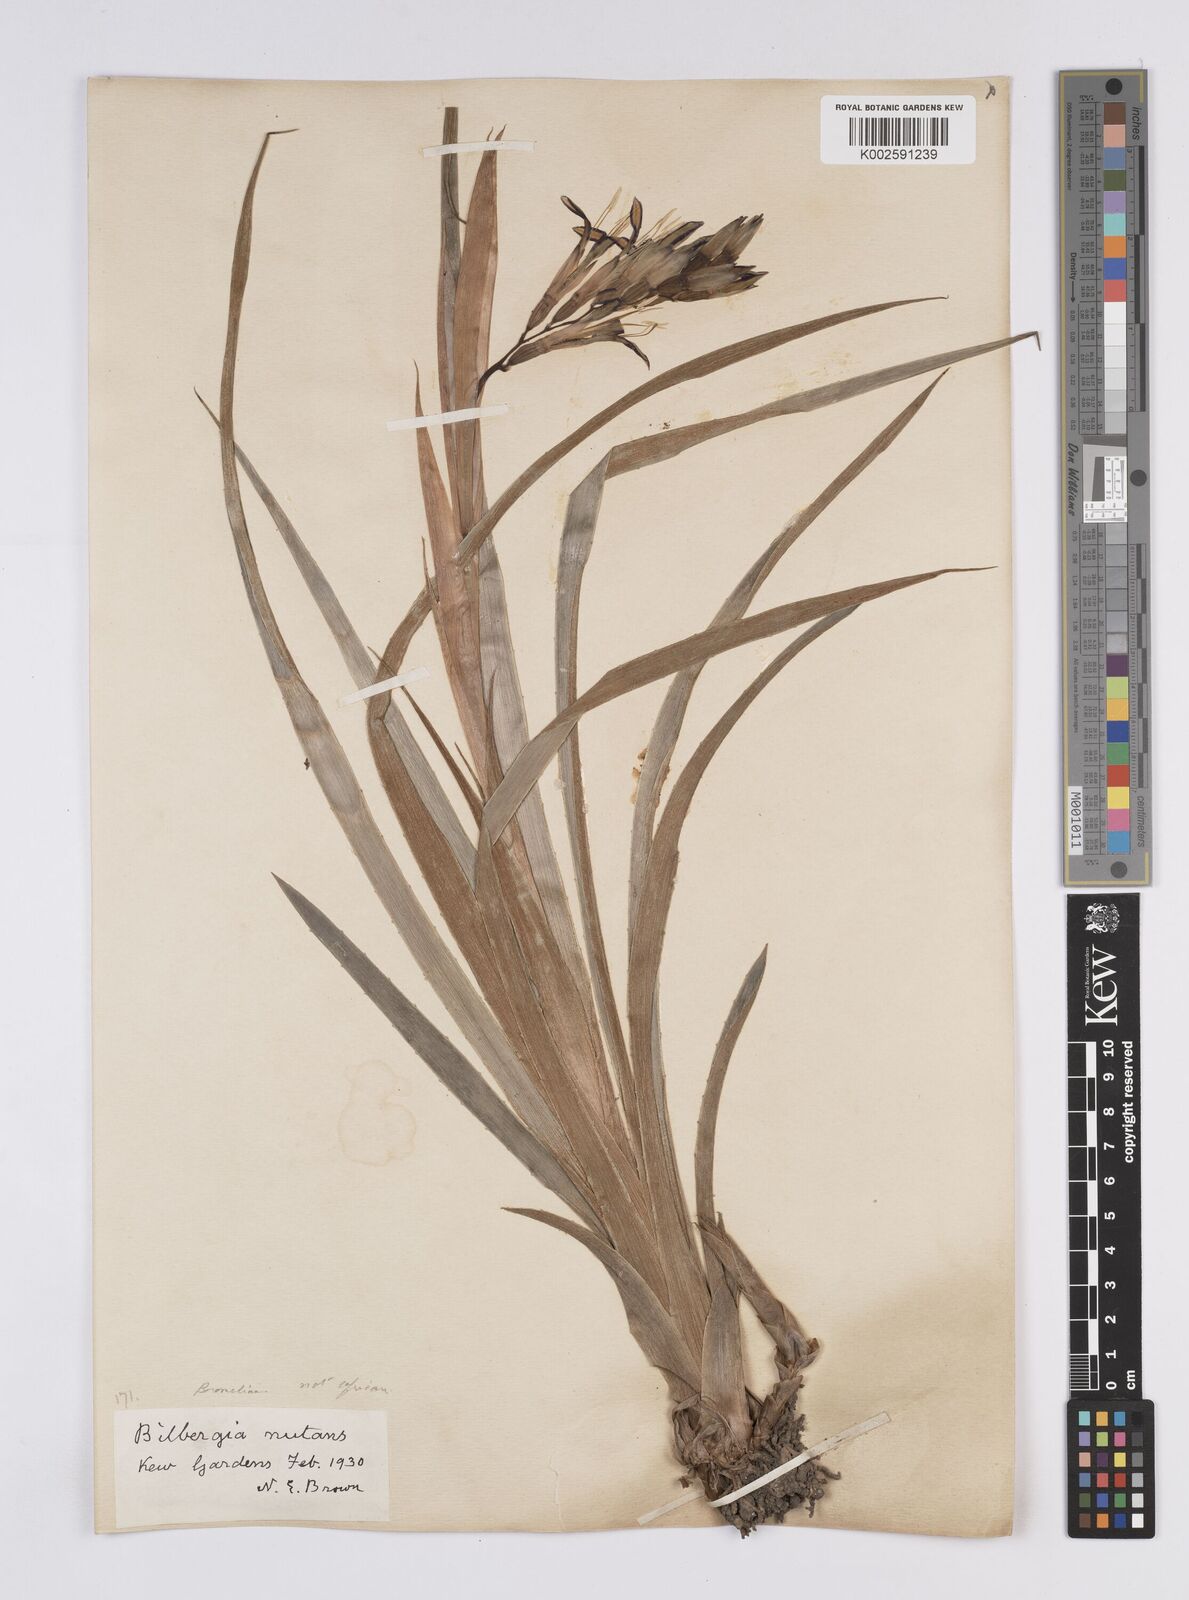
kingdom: Plantae
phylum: Tracheophyta
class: Liliopsida
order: Poales
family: Bromeliaceae
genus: Billbergia
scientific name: Billbergia nutans
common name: Friendship-plant
